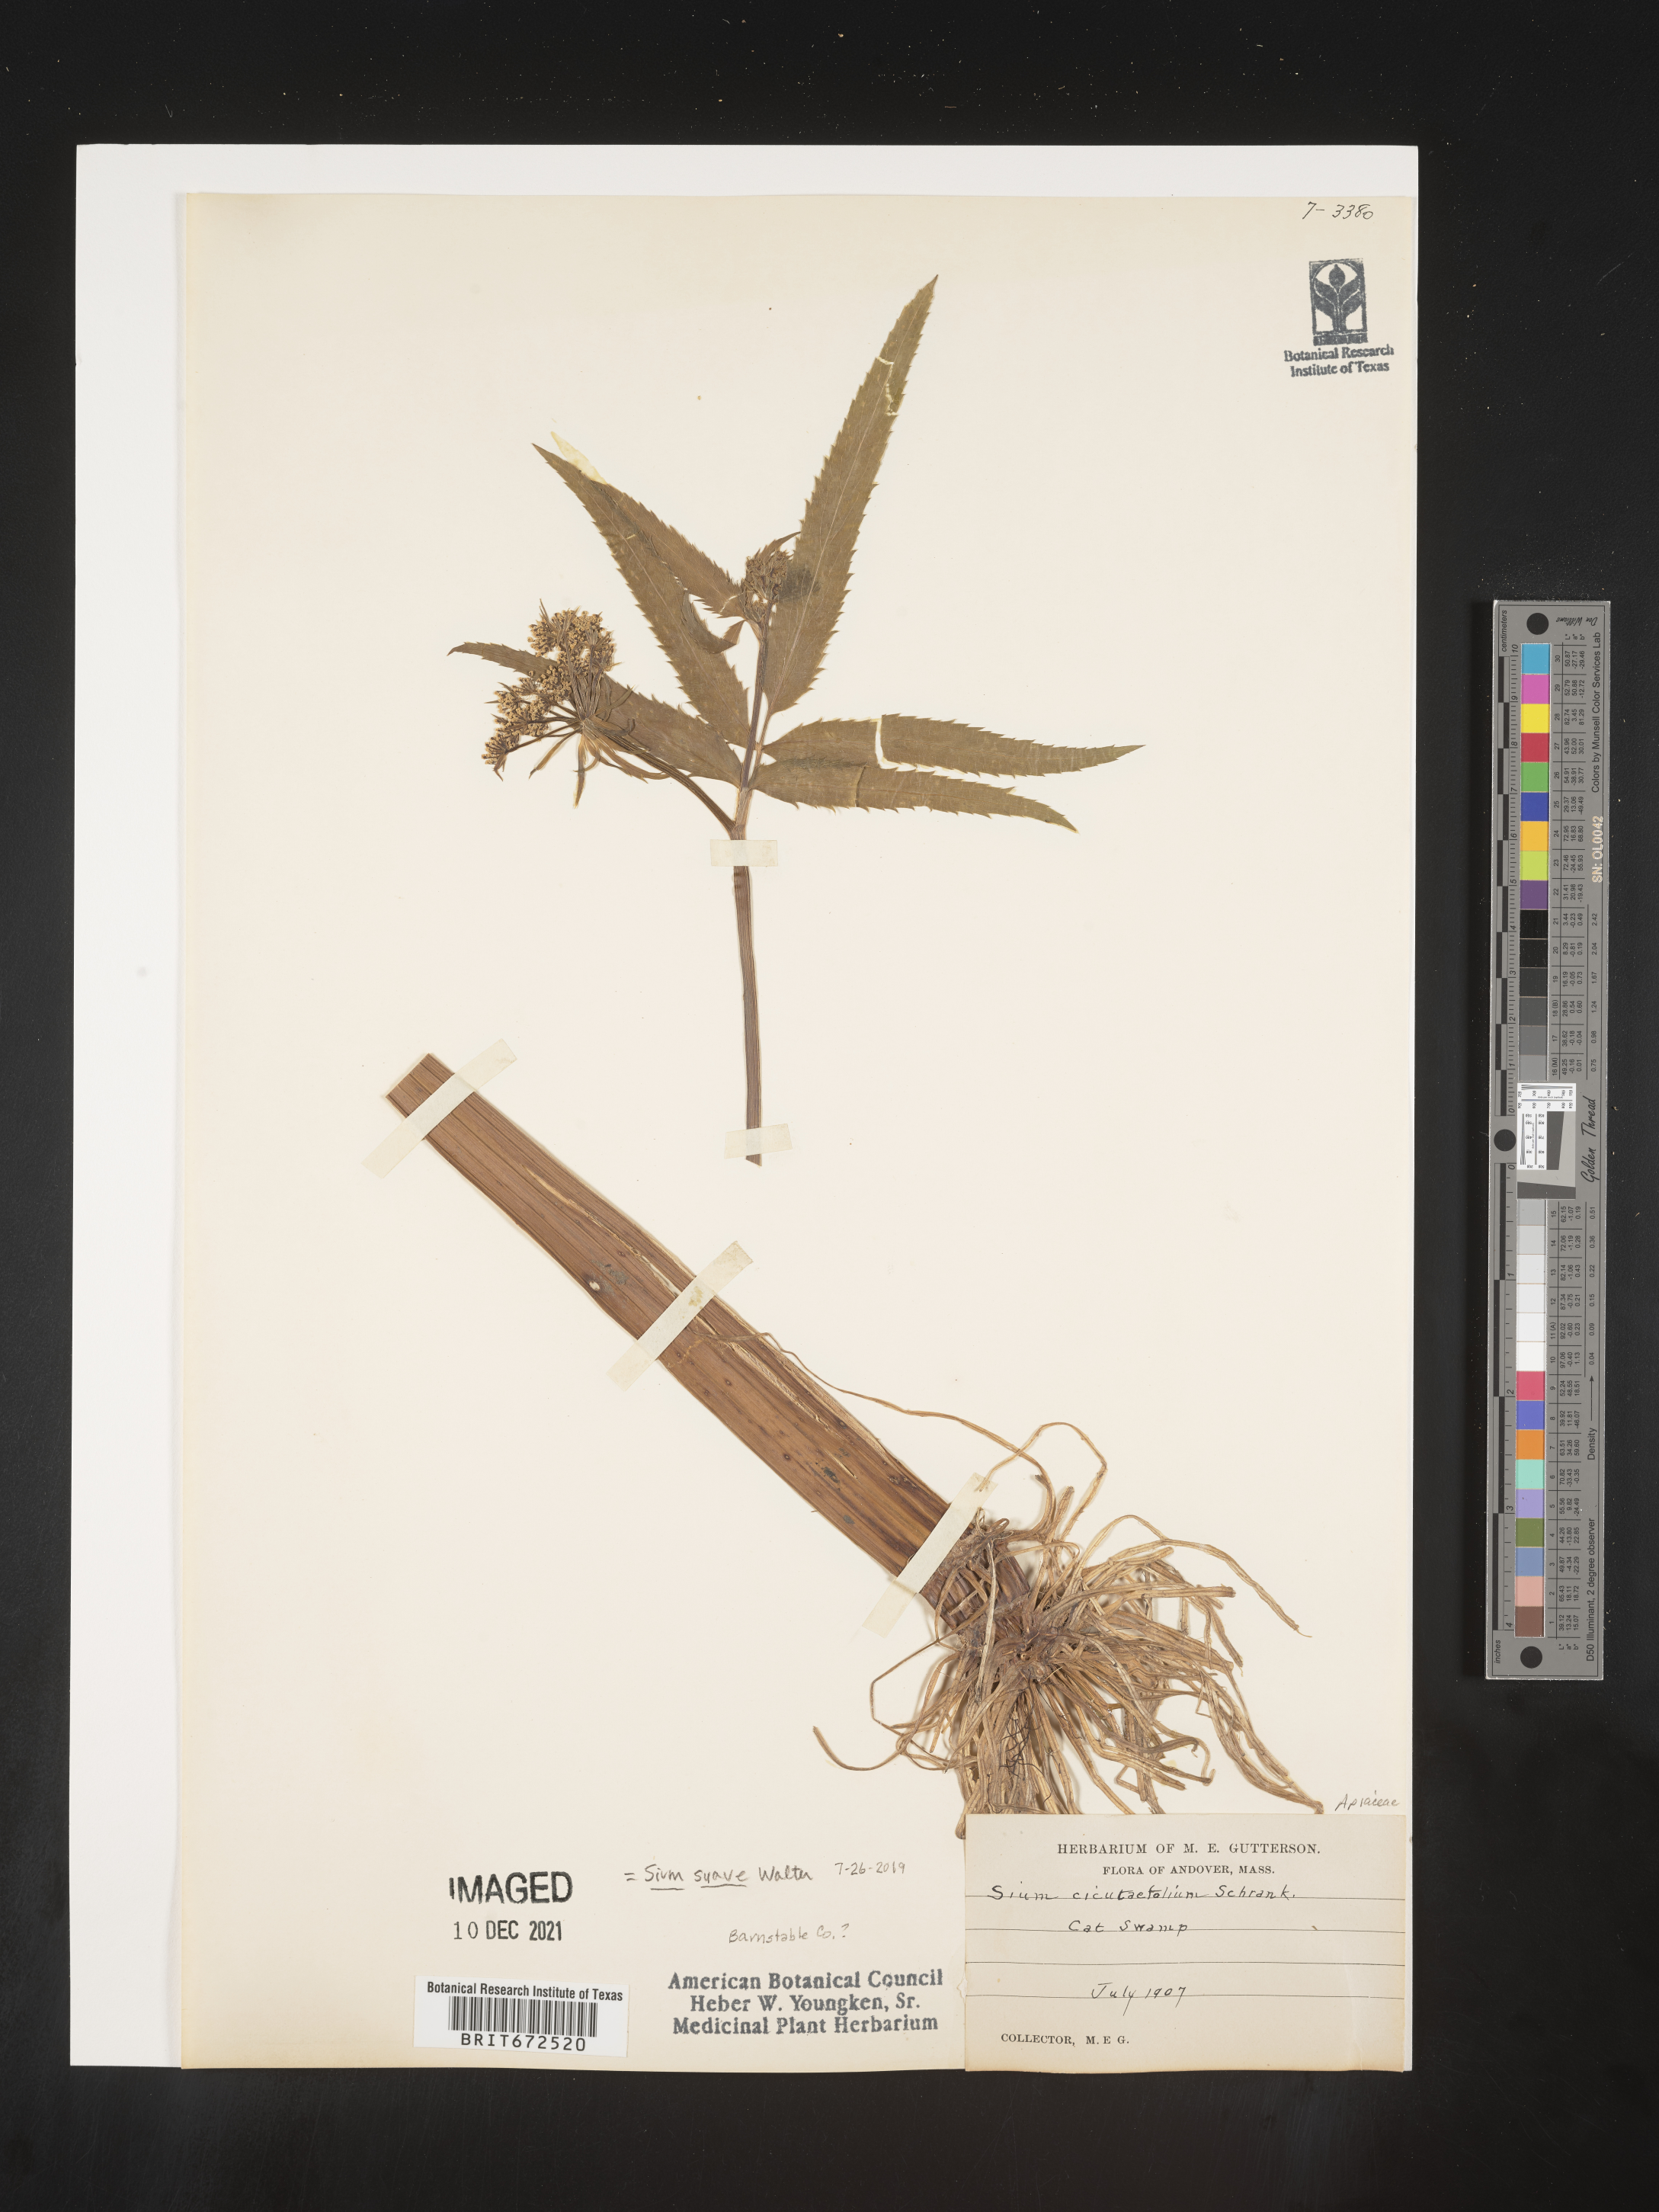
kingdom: Plantae
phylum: Tracheophyta
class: Magnoliopsida
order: Apiales
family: Apiaceae
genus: Sium
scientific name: Sium suave
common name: Hemlock water-parsnip
